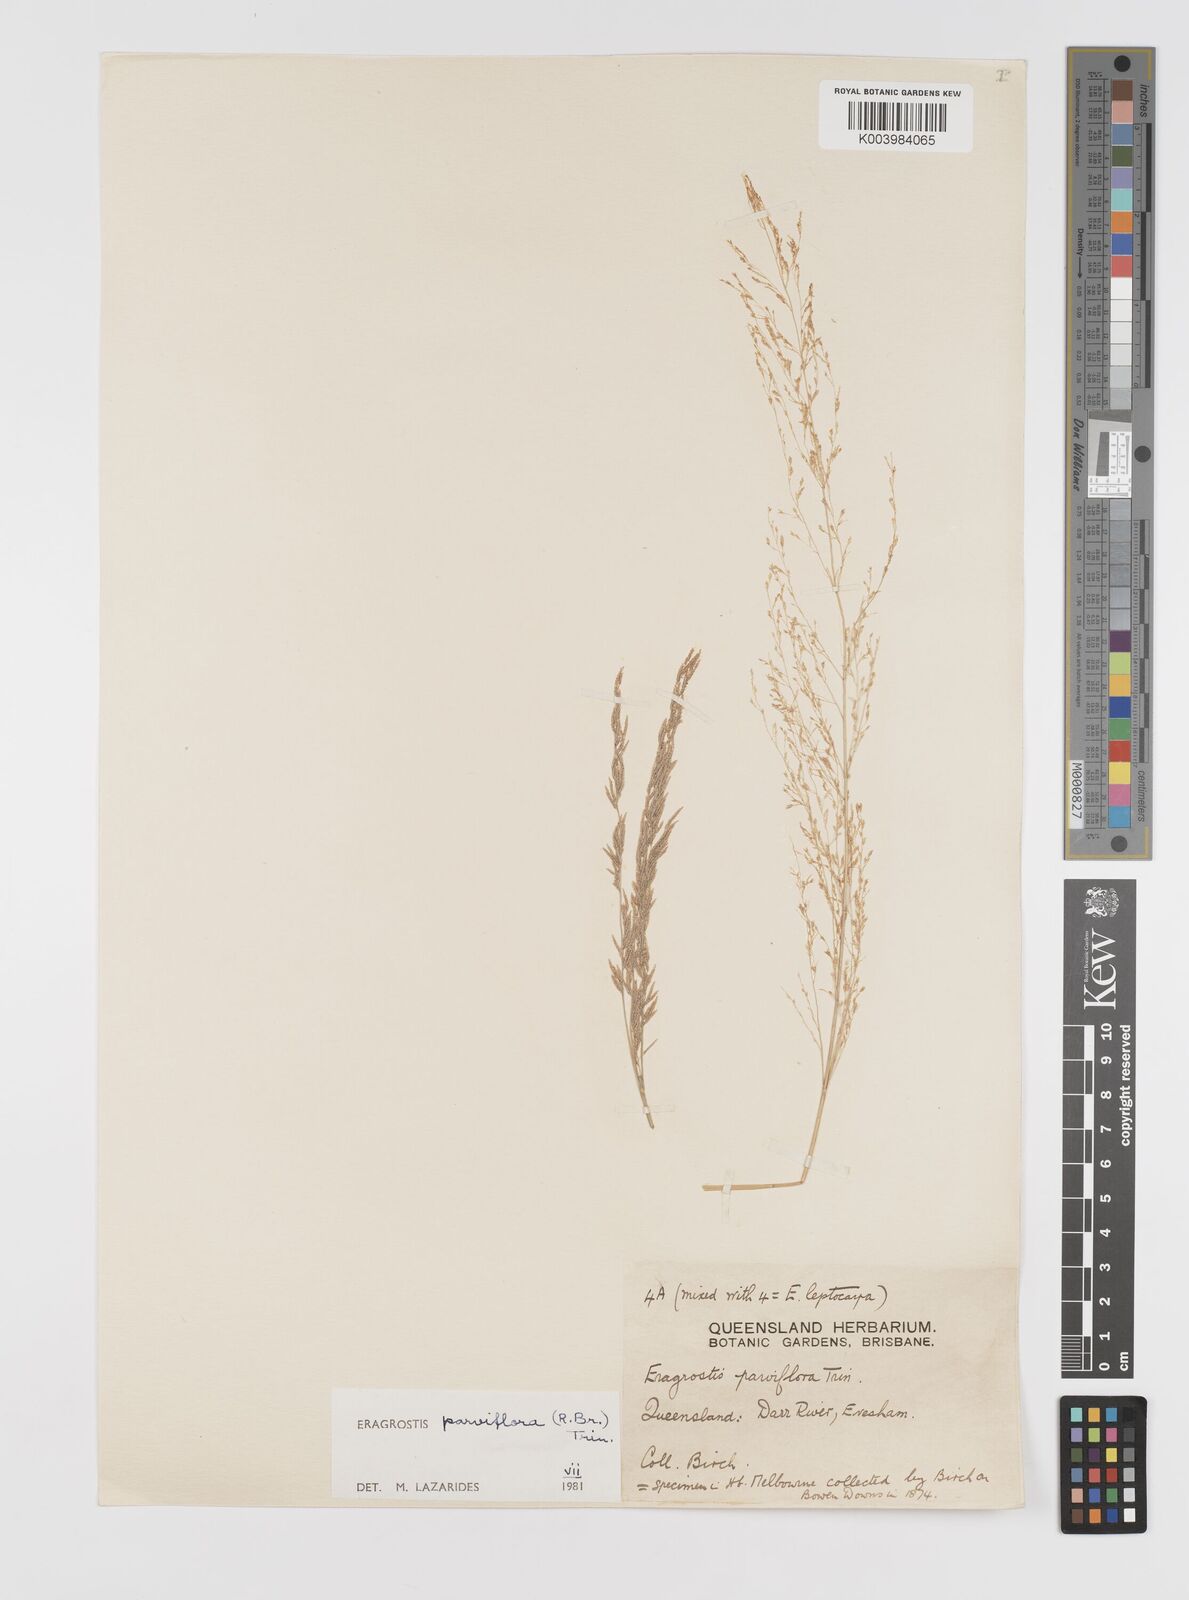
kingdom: Plantae
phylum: Tracheophyta
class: Liliopsida
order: Poales
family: Poaceae
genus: Eragrostis
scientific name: Eragrostis parviflora
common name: Weeping love-grass
